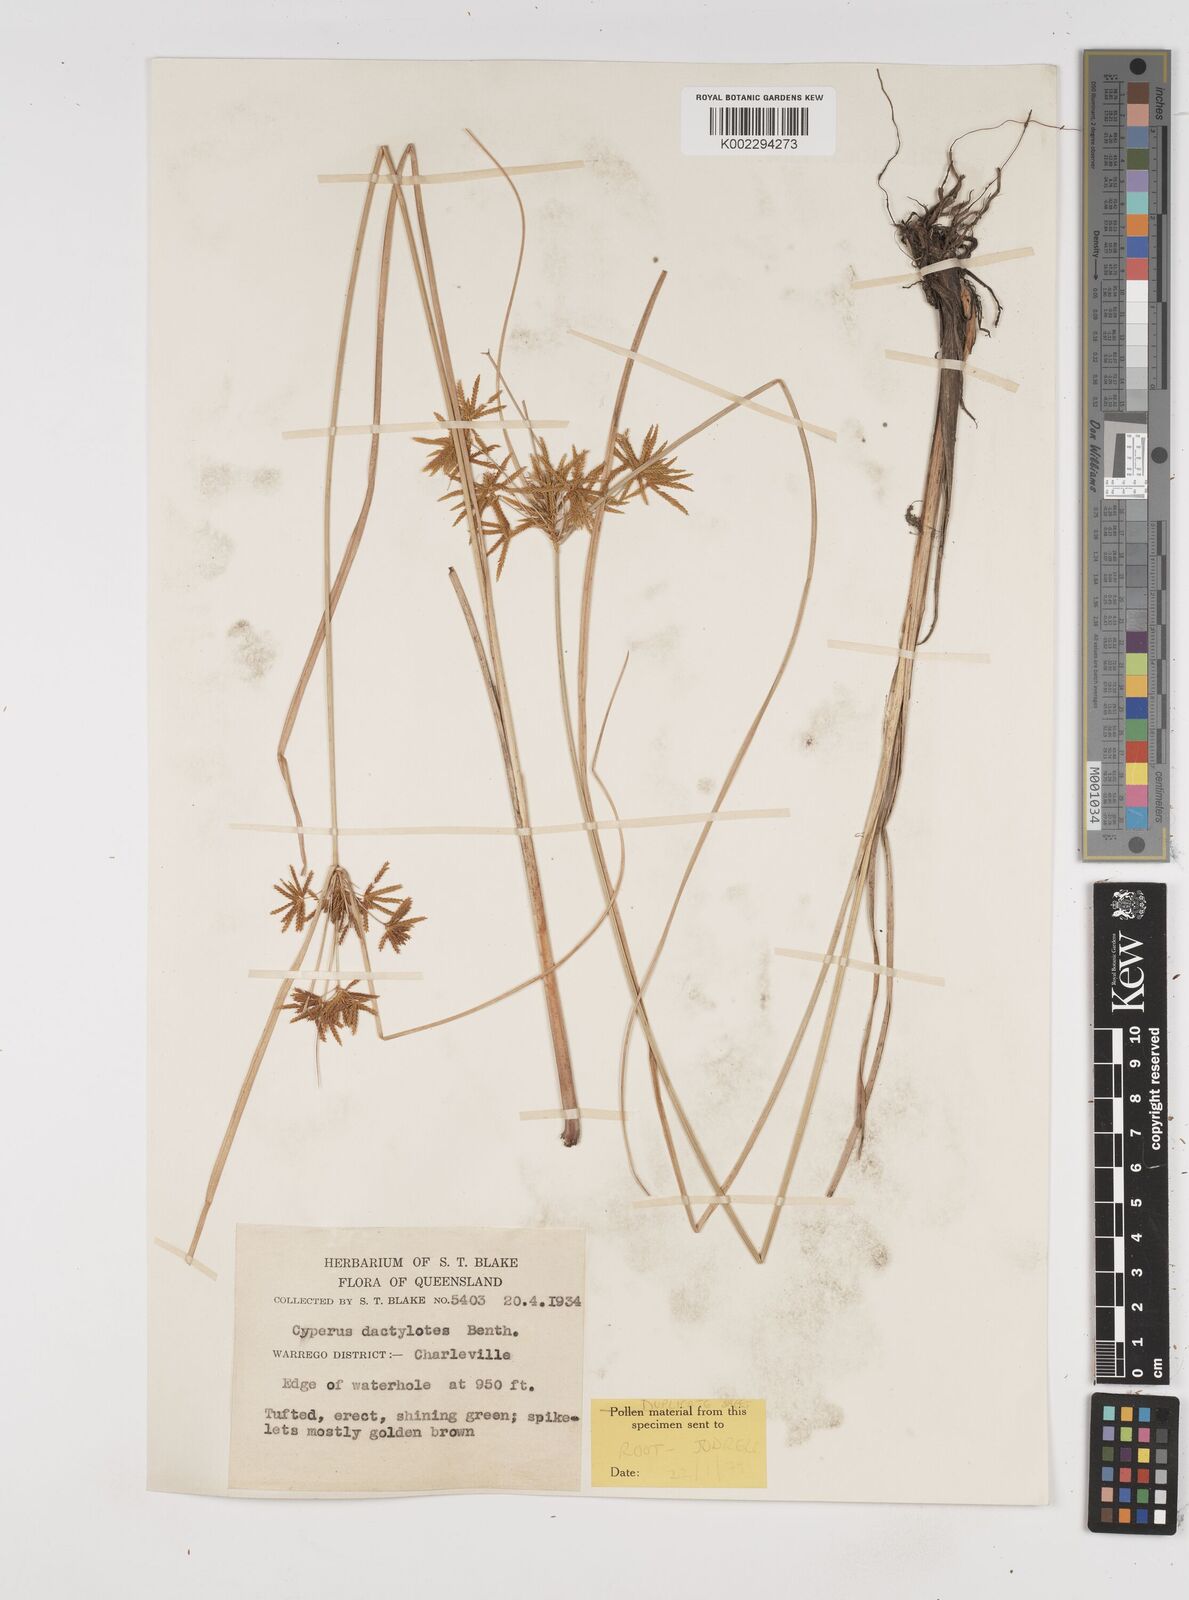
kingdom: Plantae
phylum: Tracheophyta
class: Liliopsida
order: Poales
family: Cyperaceae
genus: Cyperus
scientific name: Cyperus dactylotes
